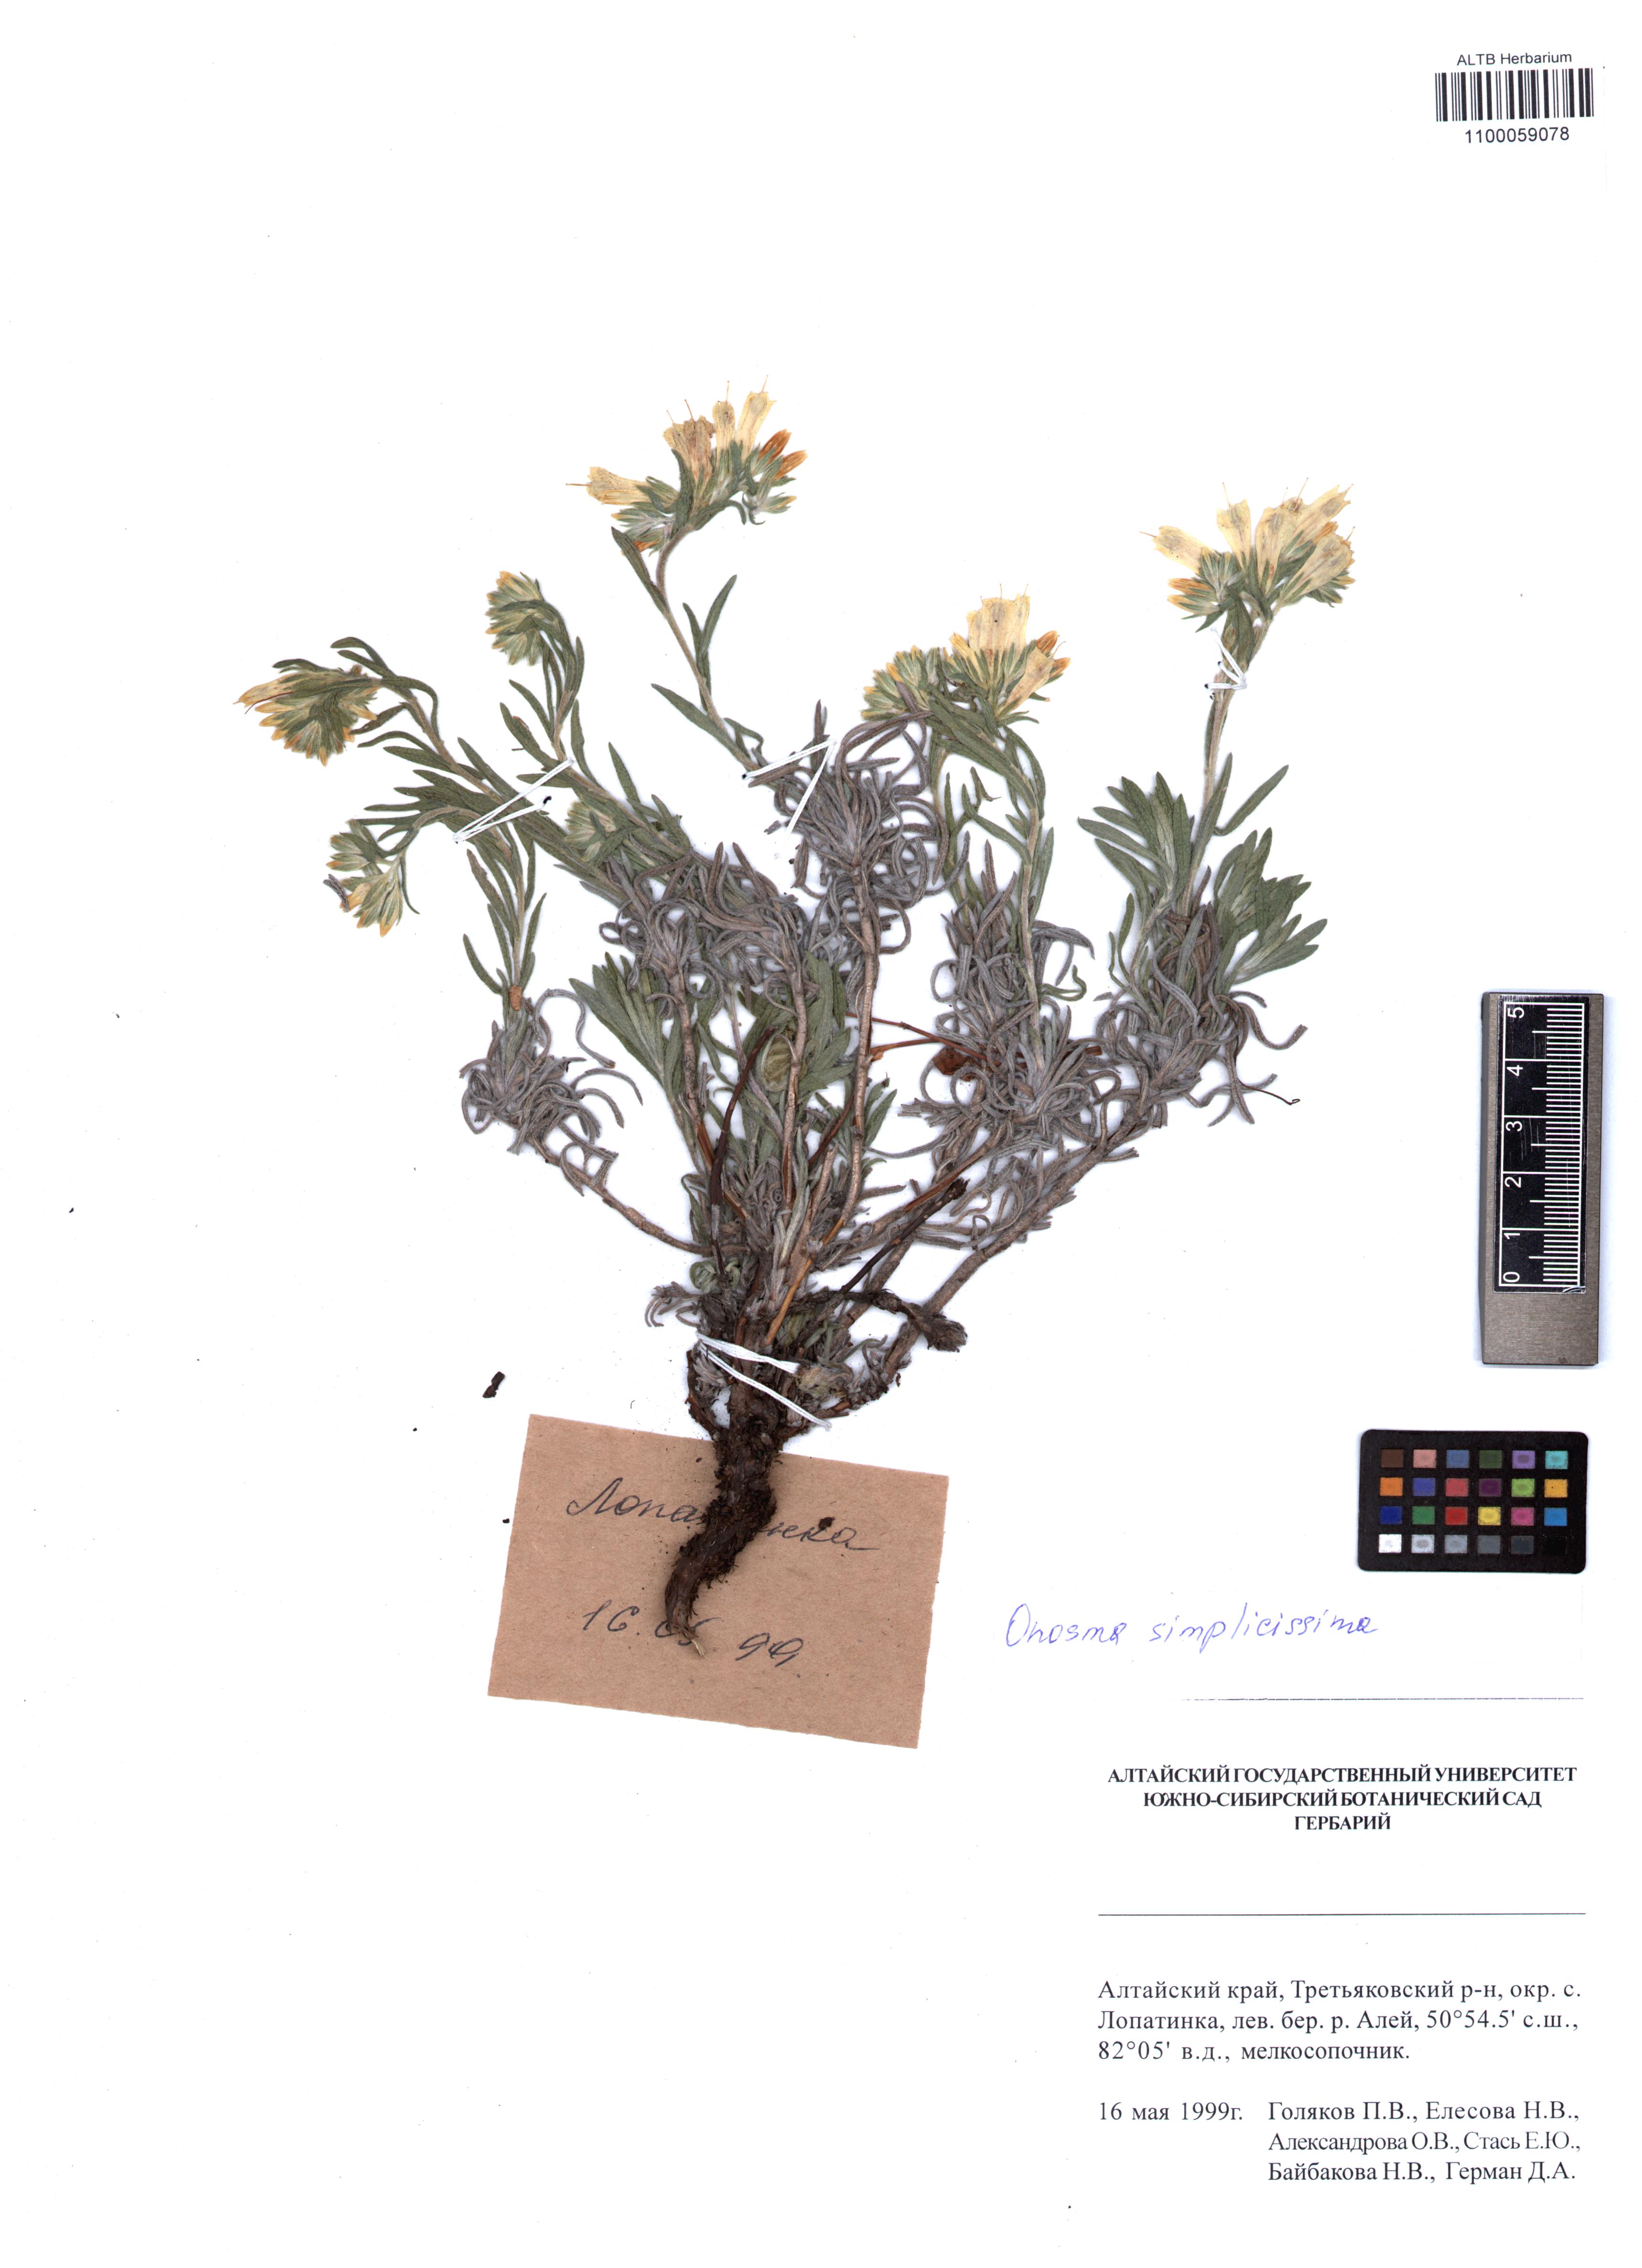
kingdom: Plantae
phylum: Tracheophyta
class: Magnoliopsida
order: Boraginales
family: Boraginaceae
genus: Onosma
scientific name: Onosma simplicissima
